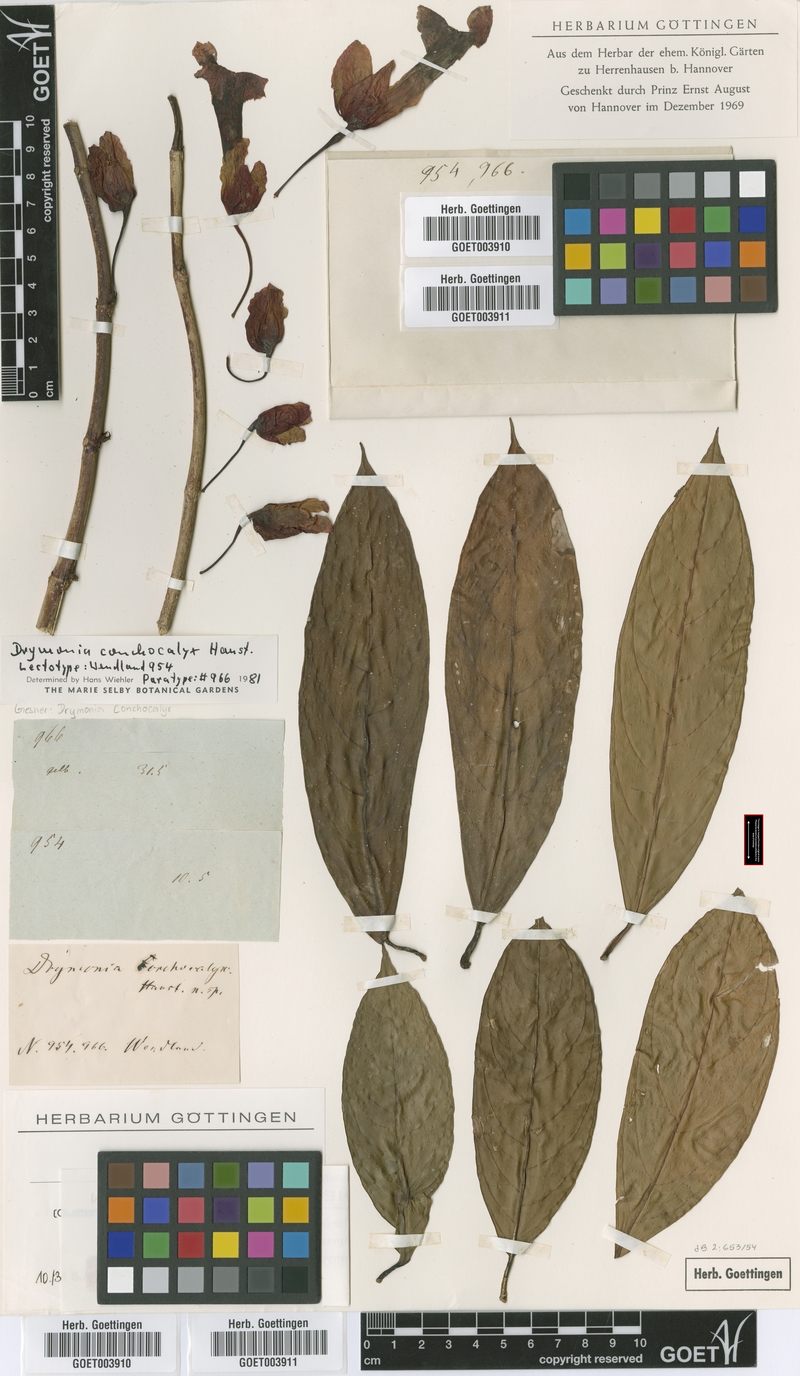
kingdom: Plantae
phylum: Tracheophyta
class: Magnoliopsida
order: Lamiales
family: Gesneriaceae
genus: Drymonia
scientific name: Drymonia conchocalyx
